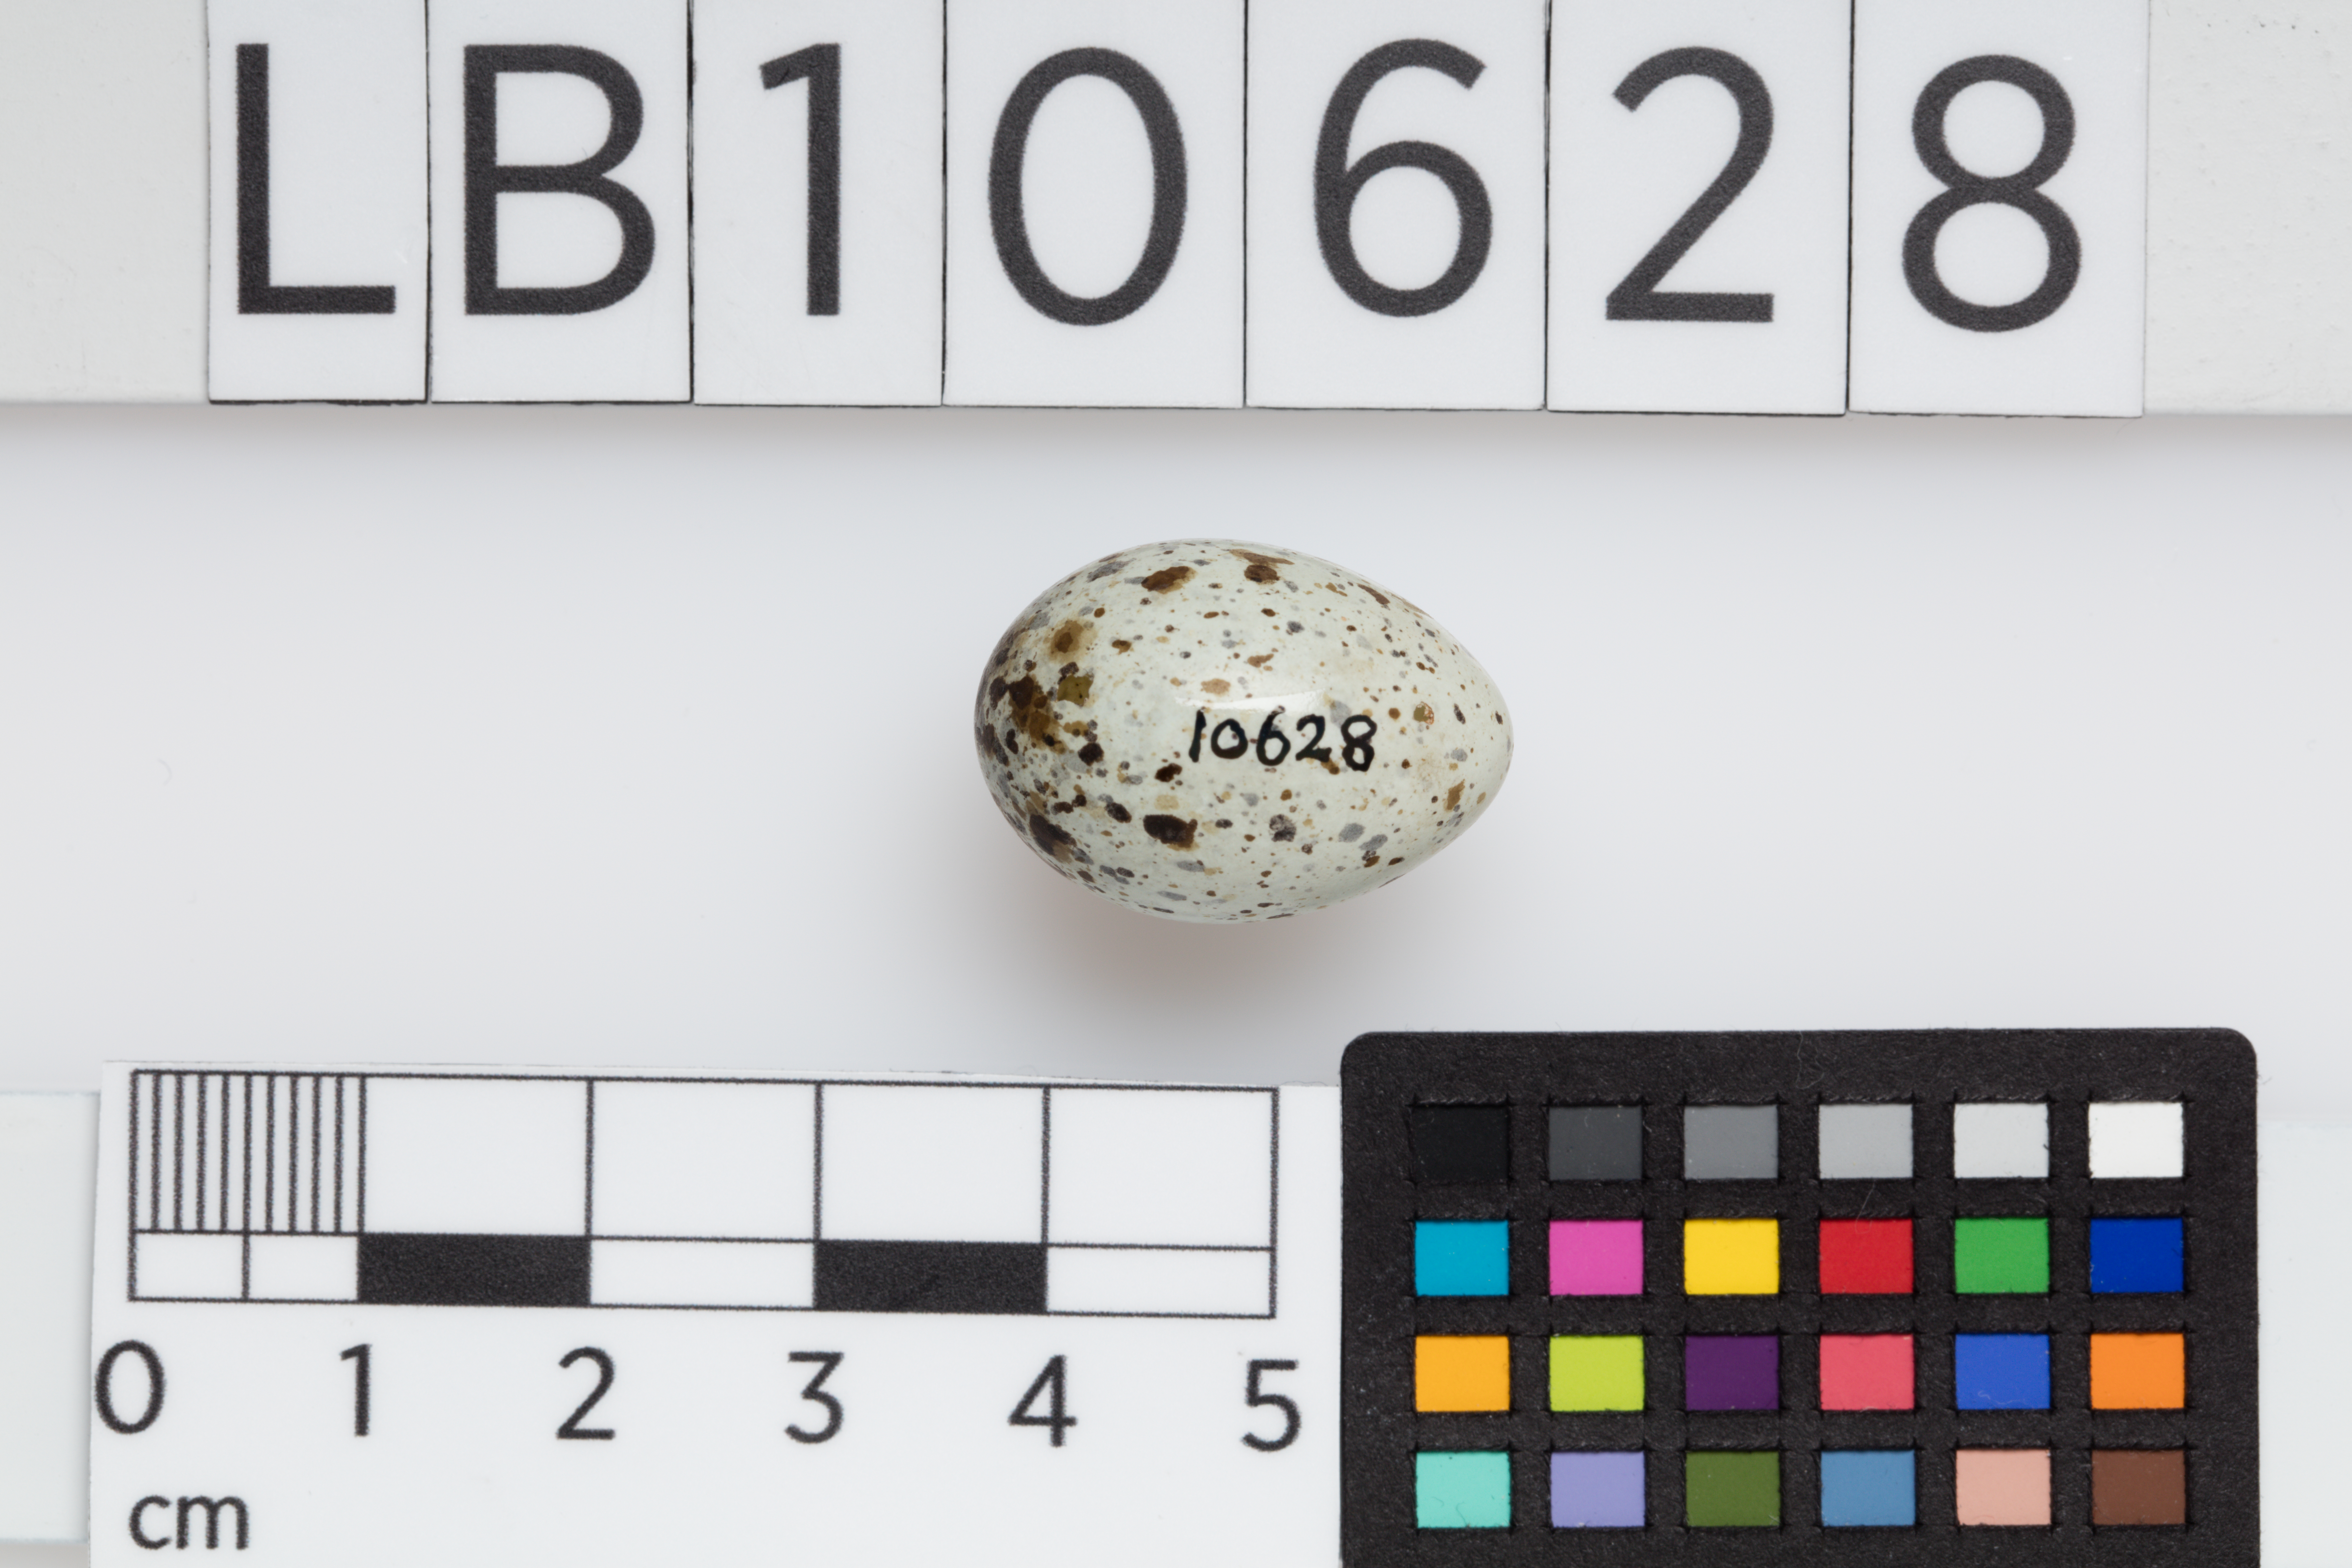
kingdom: Animalia
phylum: Chordata
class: Aves
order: Passeriformes
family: Passeridae
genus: Passer
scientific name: Passer domesticus
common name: House sparrow
